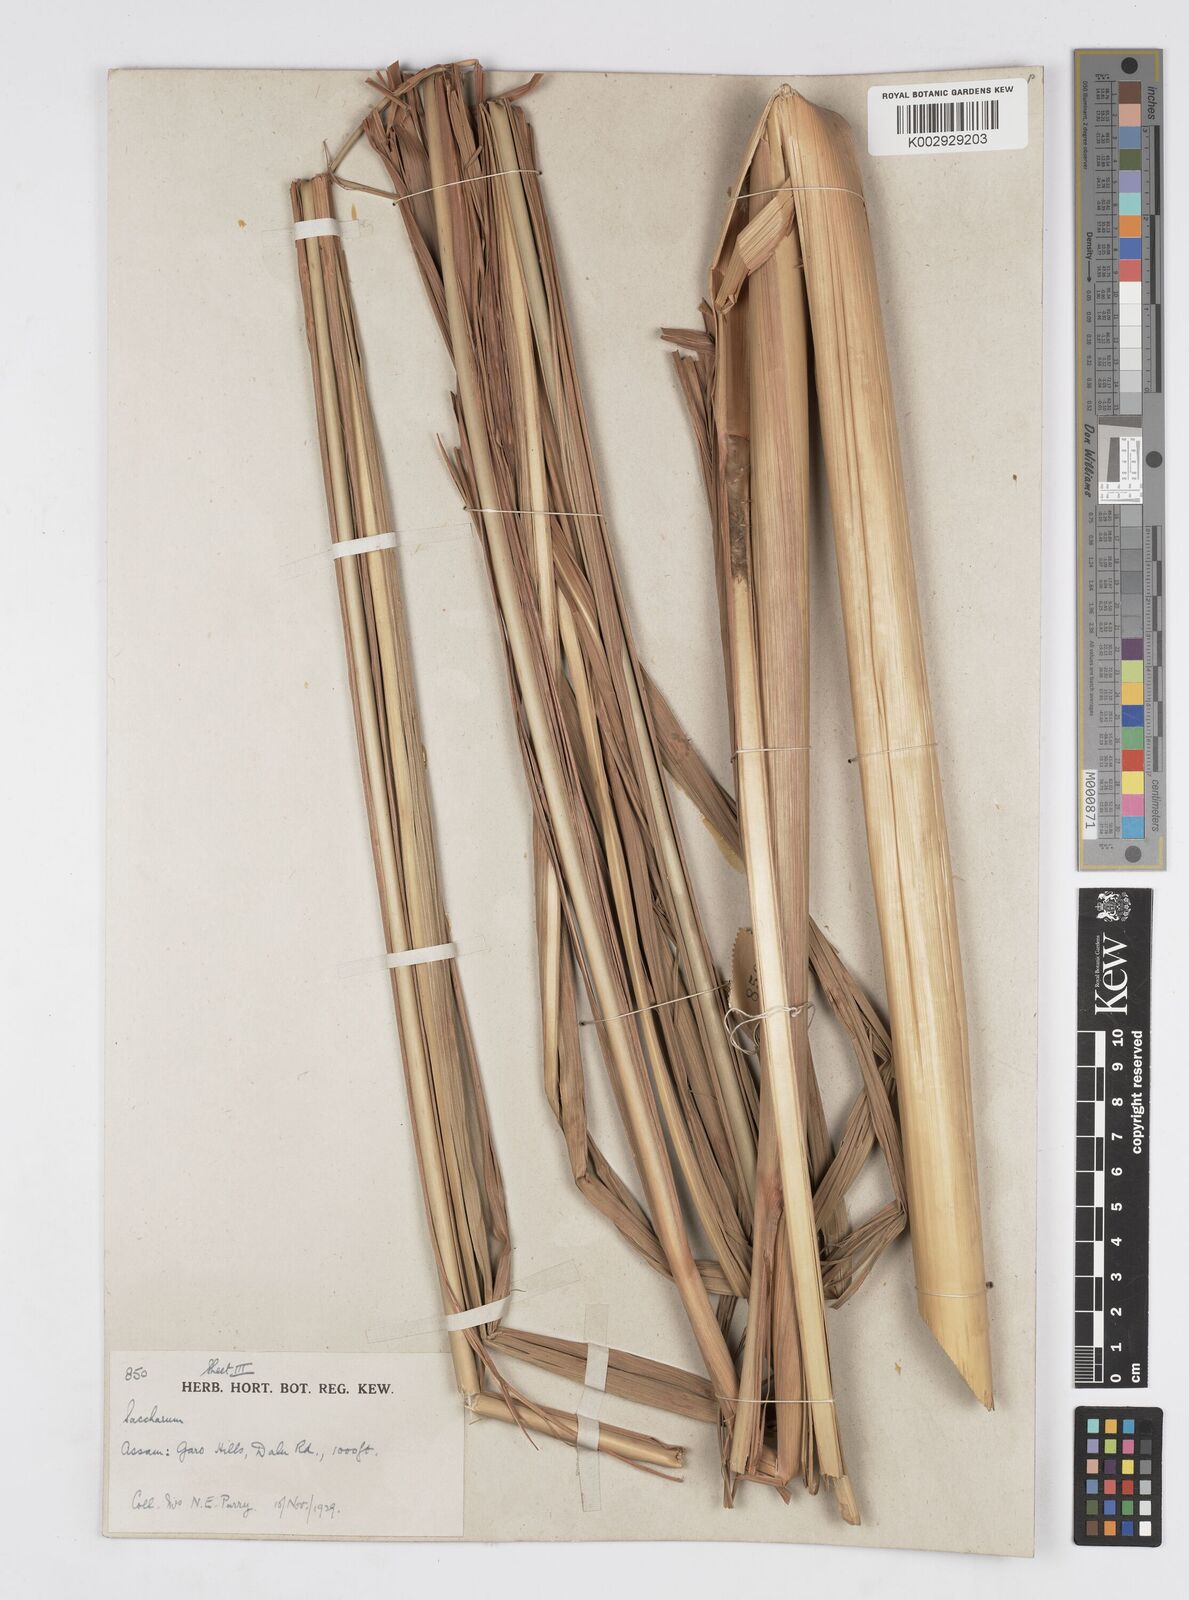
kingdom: Plantae
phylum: Tracheophyta
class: Liliopsida
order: Poales
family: Poaceae
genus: Tripidium
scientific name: Tripidium ravennae
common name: Ravenna grass
